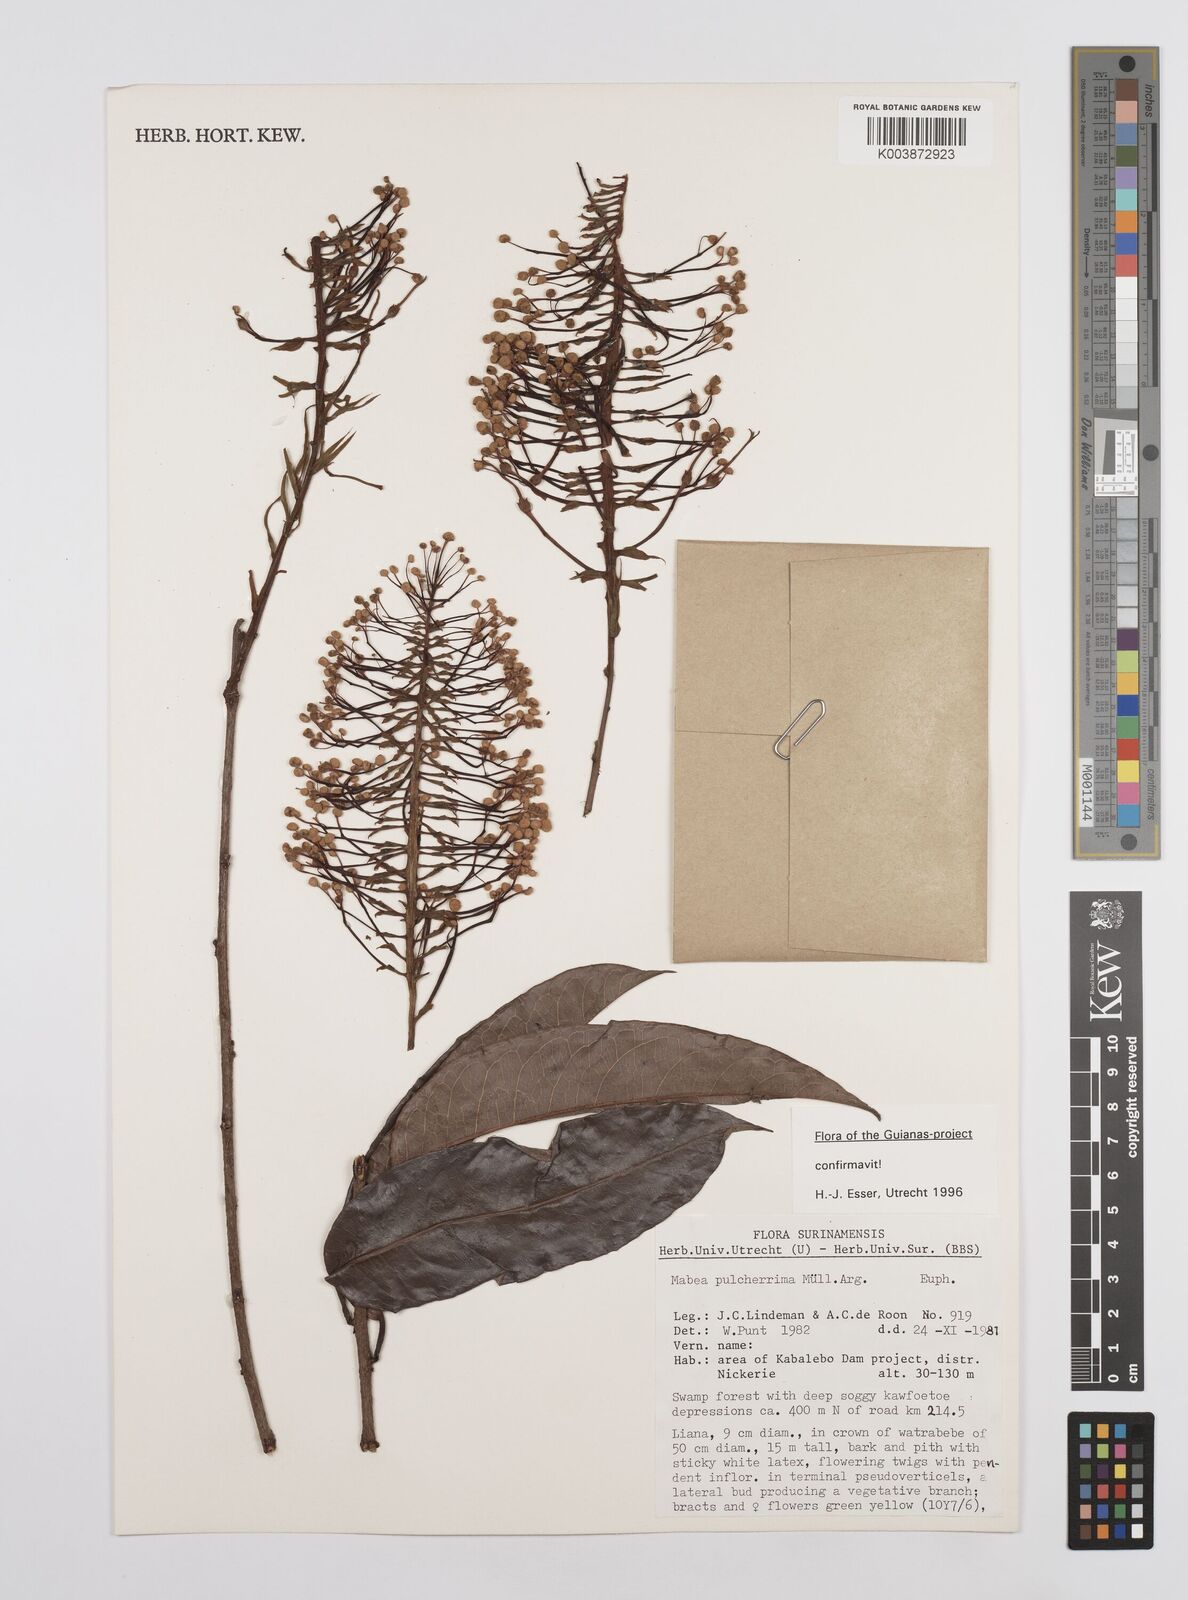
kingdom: Plantae
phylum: Tracheophyta
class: Magnoliopsida
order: Malpighiales
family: Euphorbiaceae
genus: Mabea
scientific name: Mabea pulcherrima
